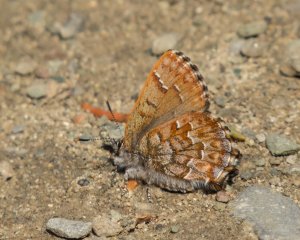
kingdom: Animalia
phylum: Arthropoda
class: Insecta
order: Lepidoptera
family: Lycaenidae
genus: Incisalia
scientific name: Incisalia niphon
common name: Eastern Pine Elfin
